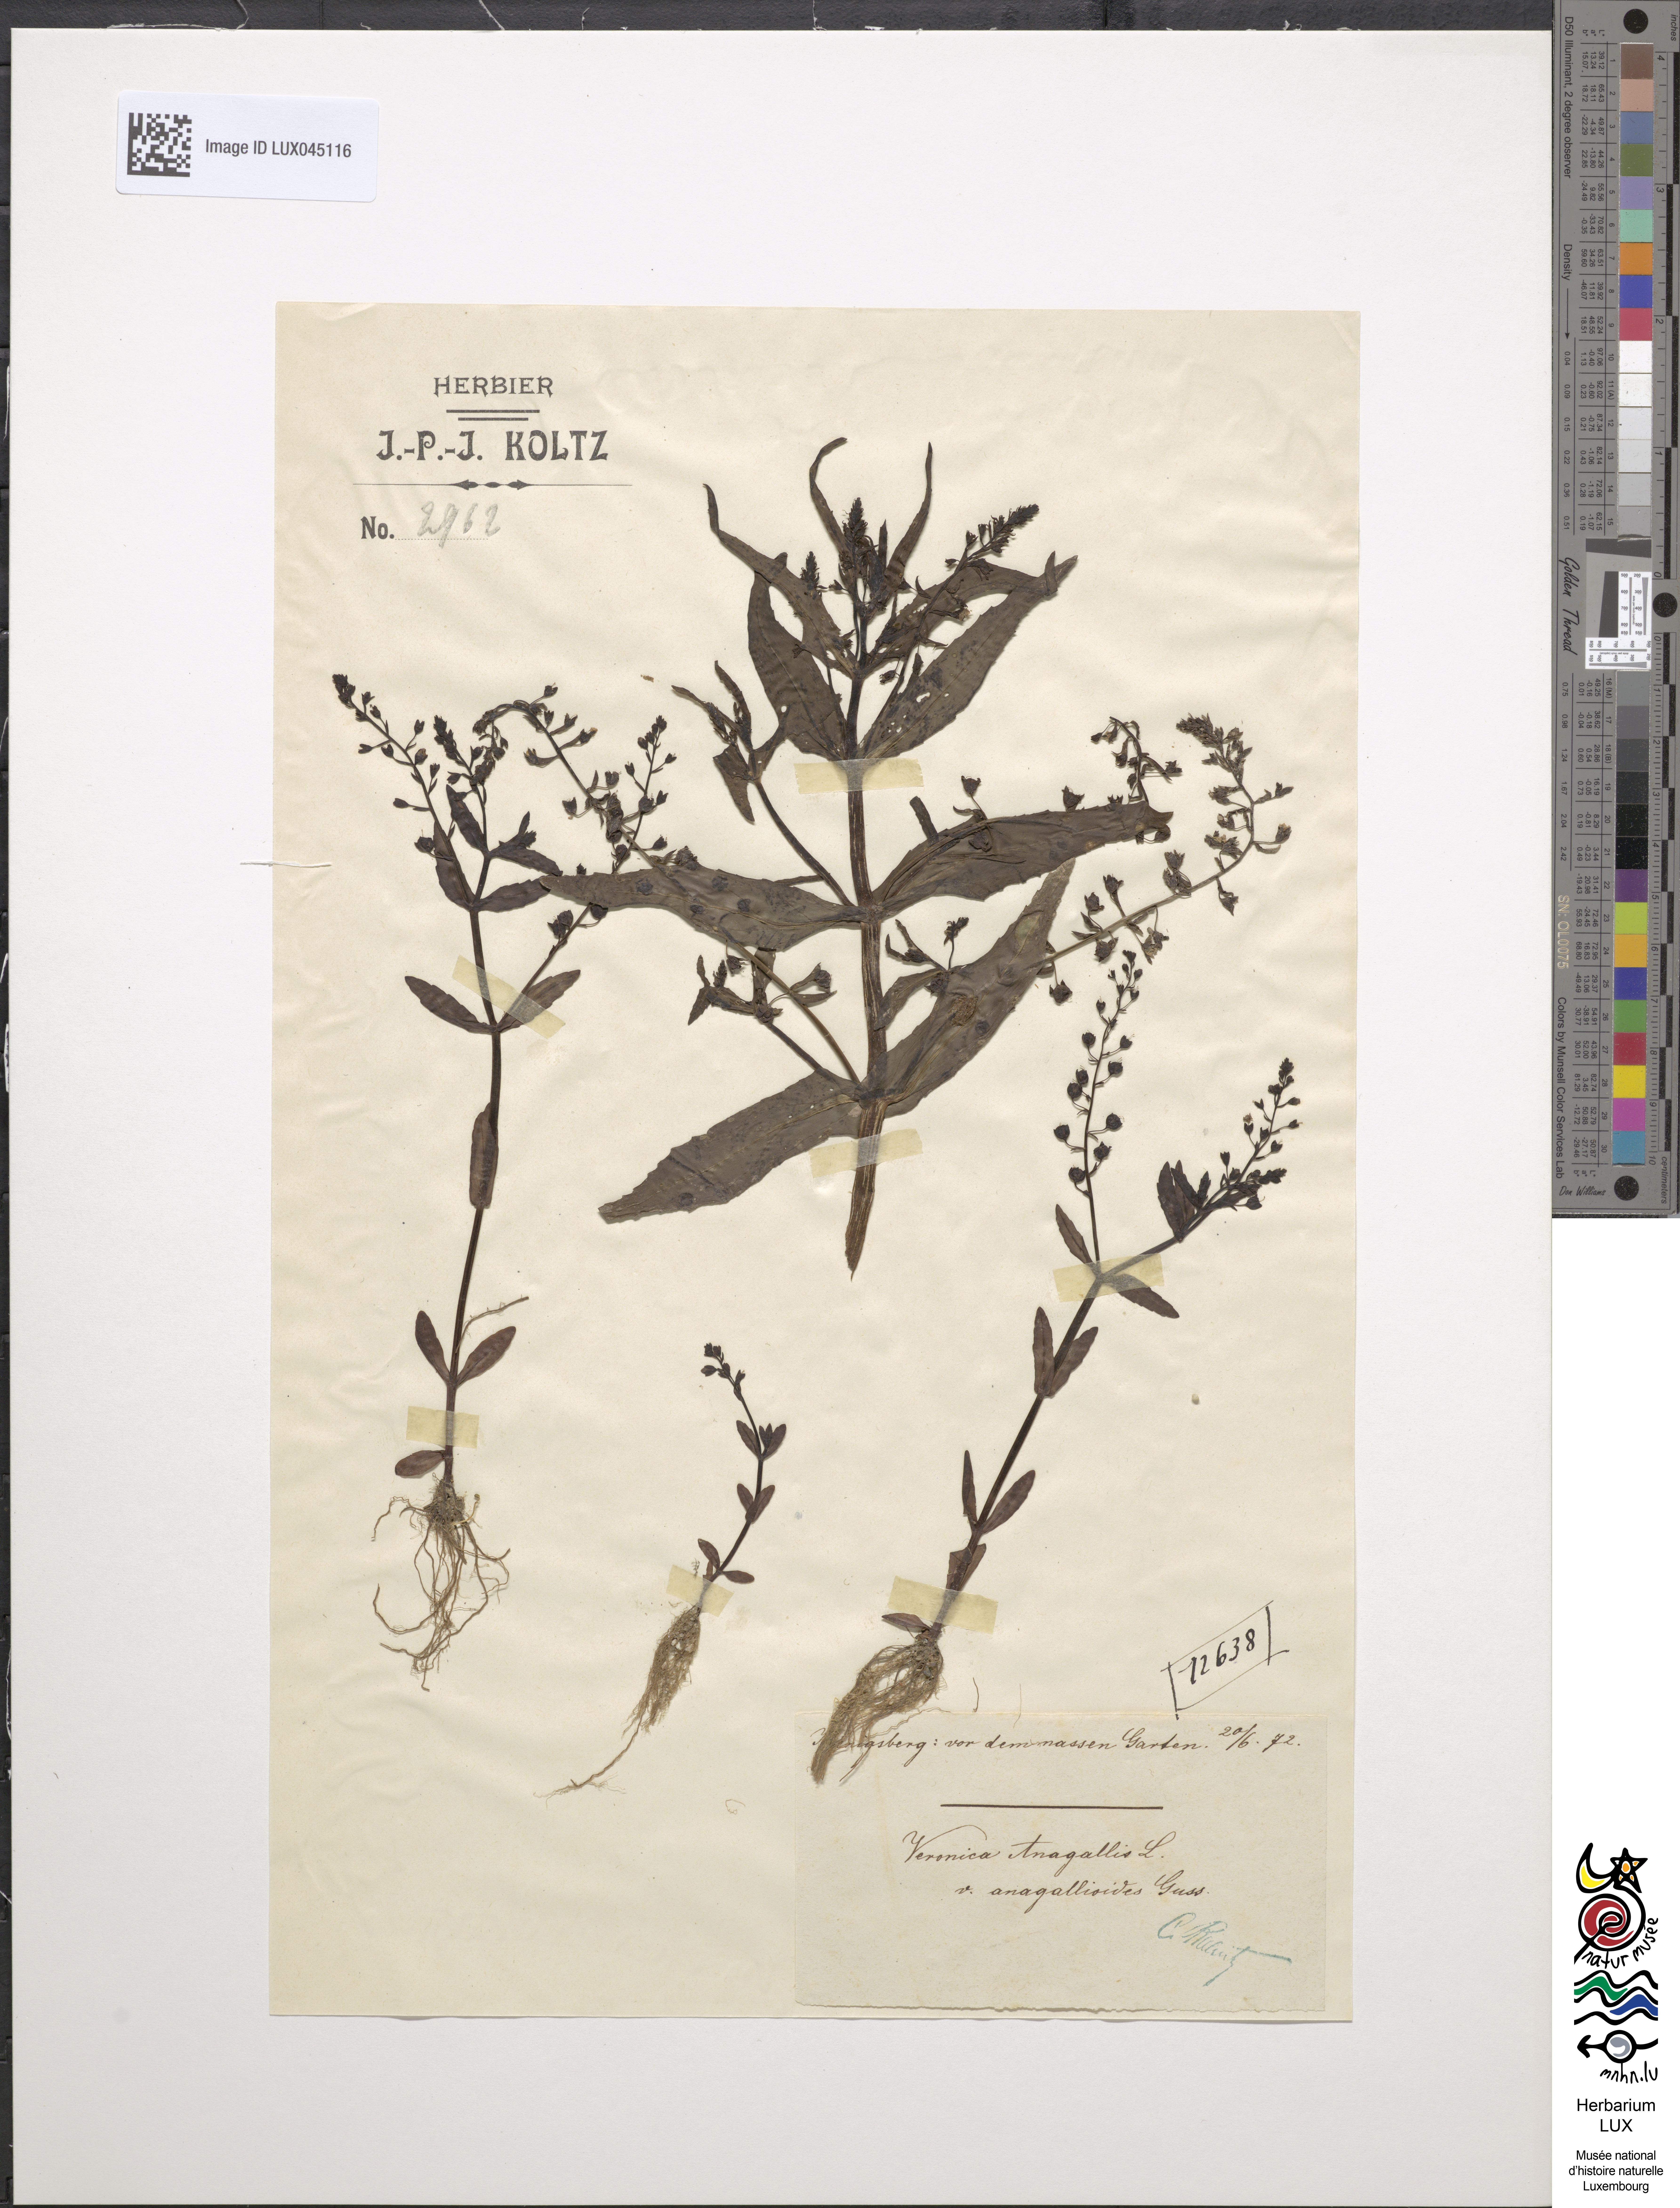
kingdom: Plantae
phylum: Tracheophyta
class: Magnoliopsida
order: Lamiales
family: Plantaginaceae
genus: Veronica
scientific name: Veronica anagallis
